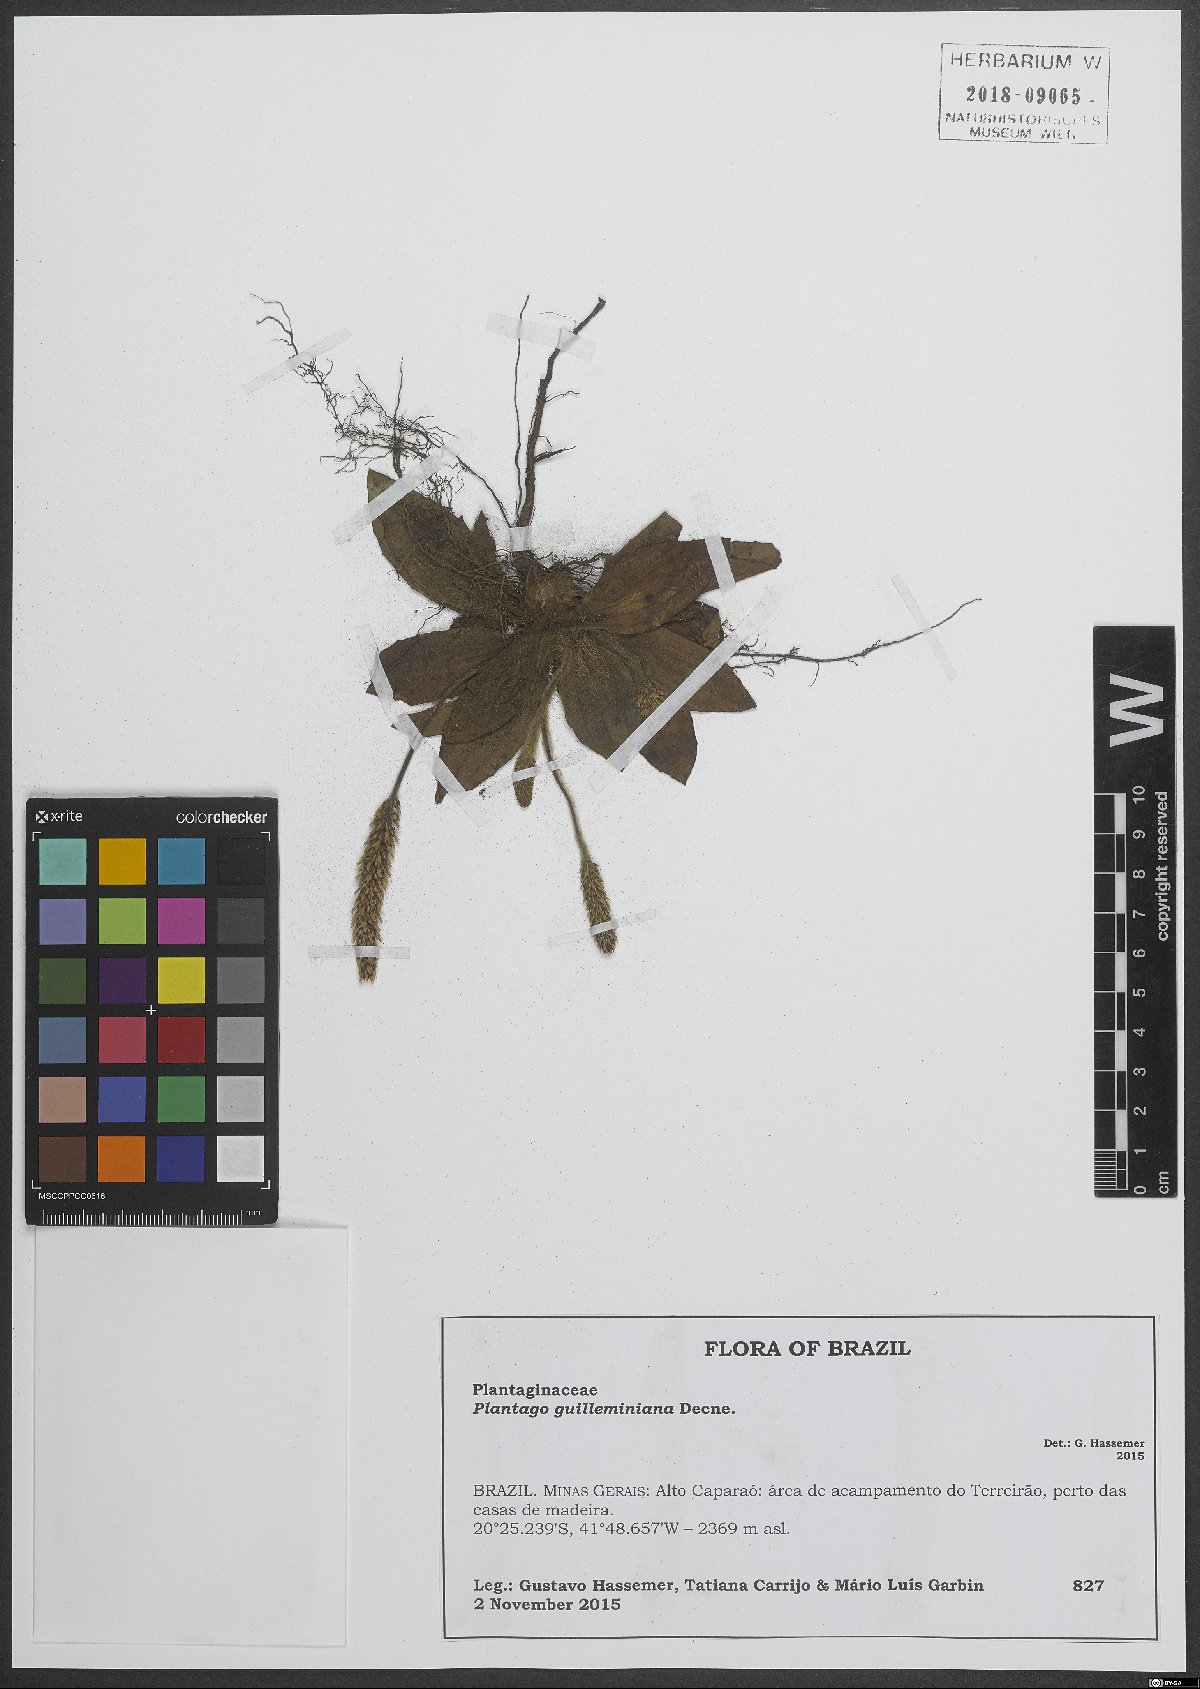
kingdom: Plantae
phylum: Tracheophyta
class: Magnoliopsida
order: Lamiales
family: Plantaginaceae
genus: Plantago
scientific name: Plantago guilleminiana
